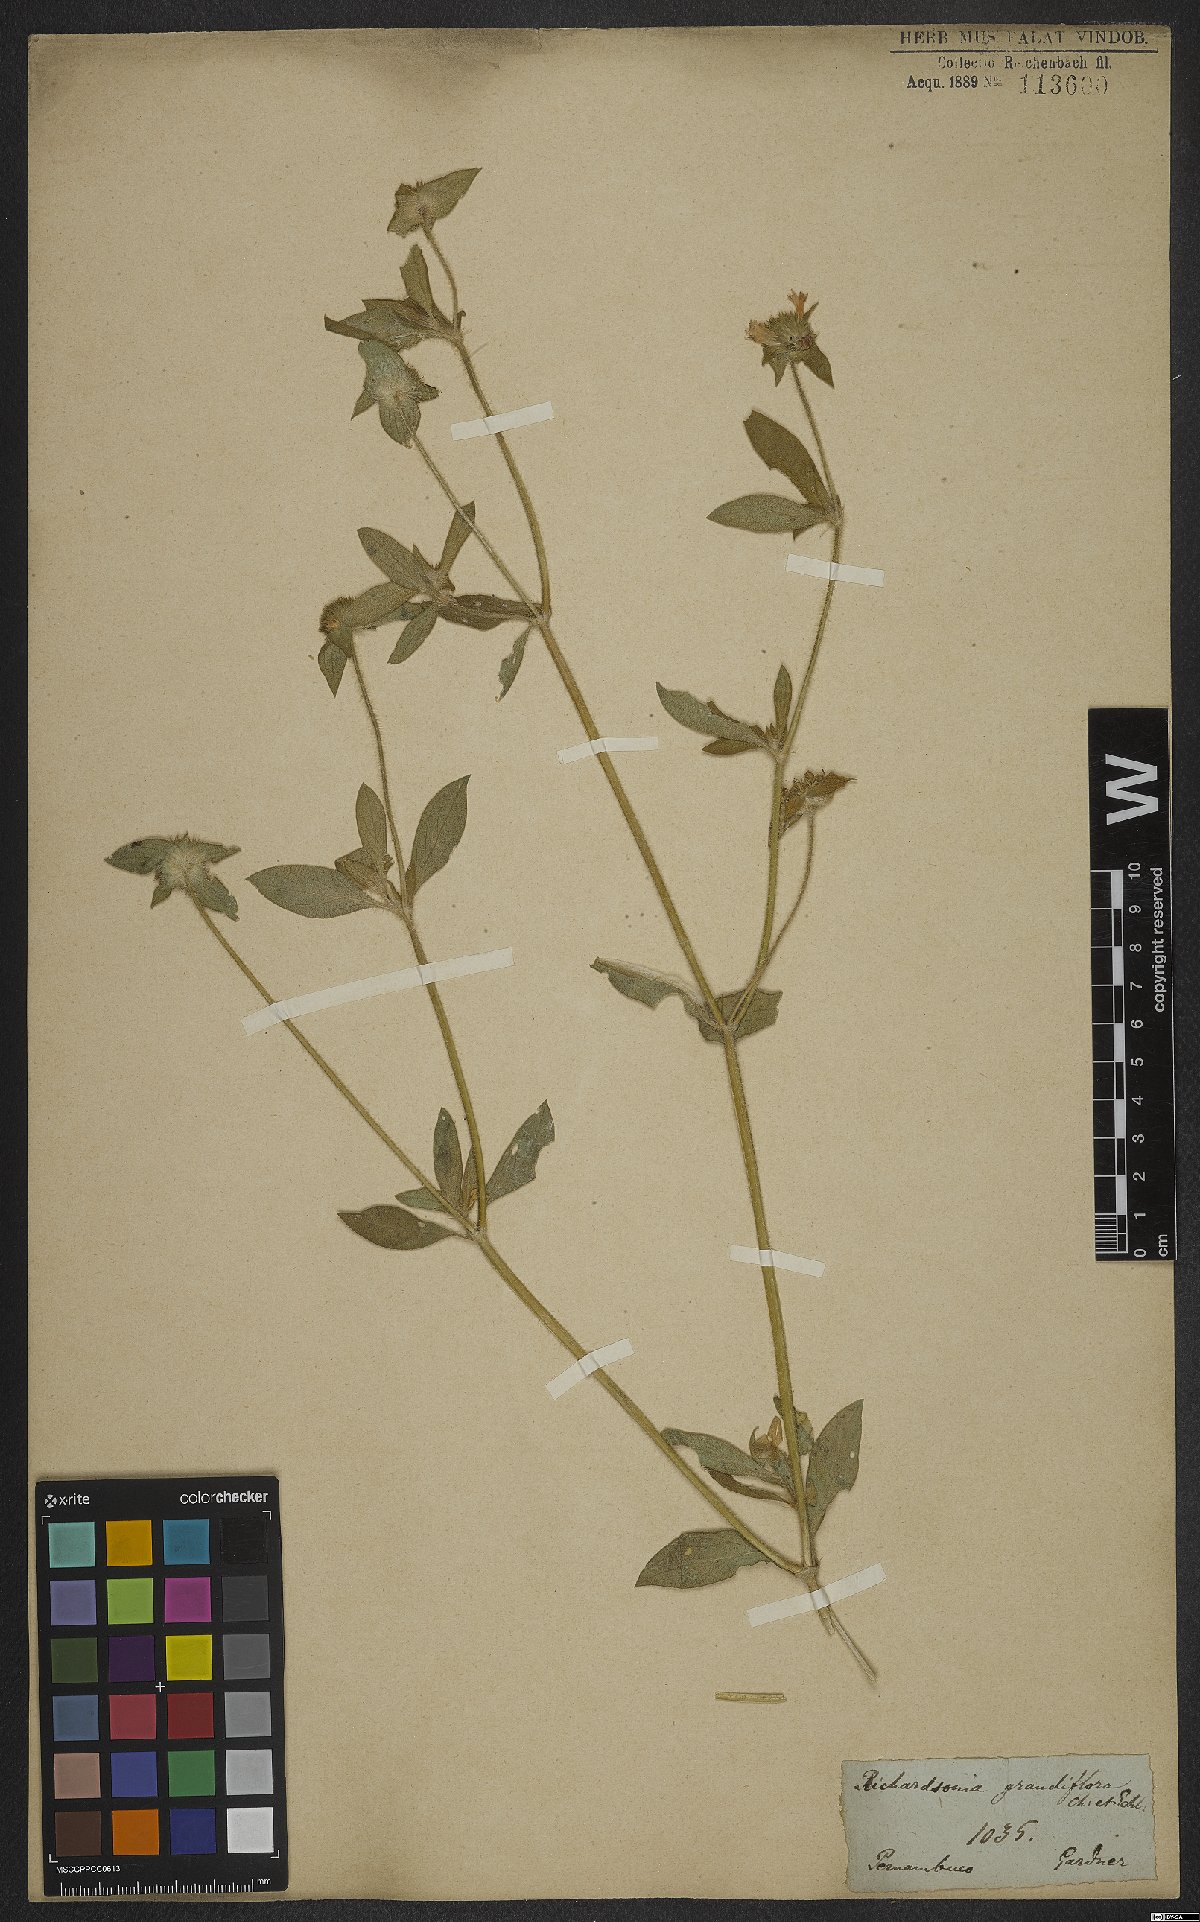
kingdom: Plantae
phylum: Tracheophyta
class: Magnoliopsida
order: Gentianales
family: Rubiaceae
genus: Richardia
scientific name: Richardia grandiflora
